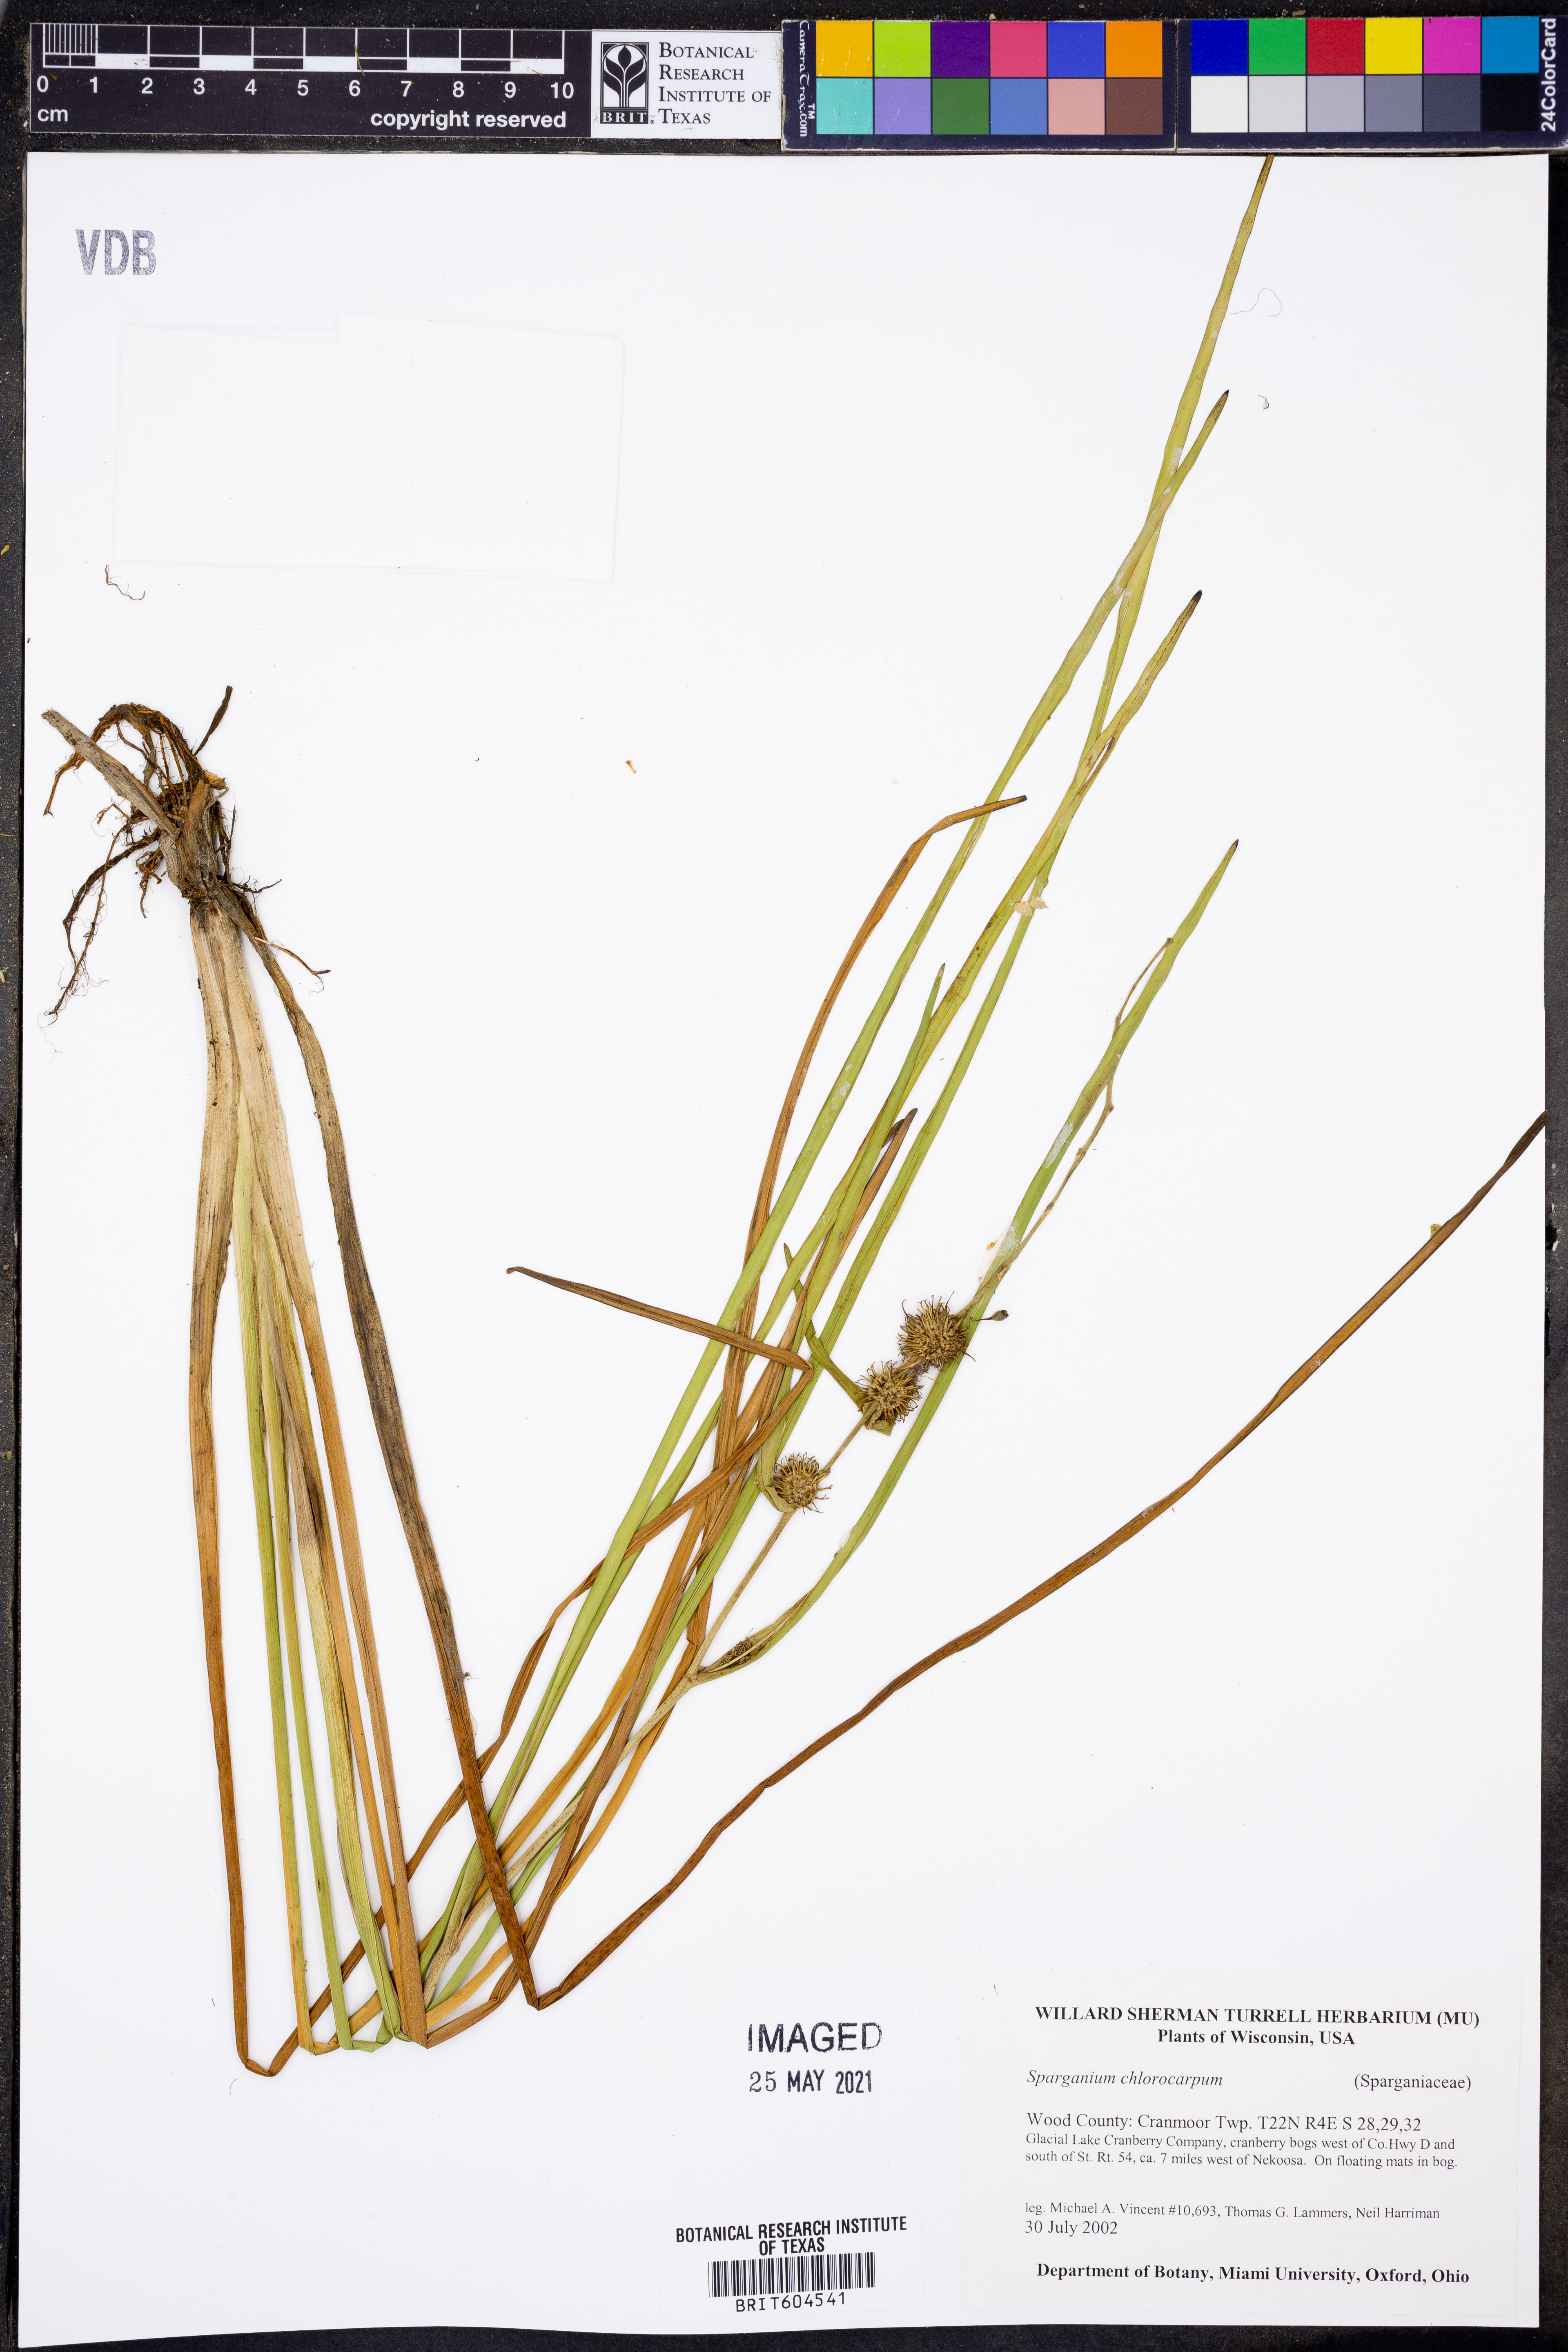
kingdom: Plantae
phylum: Tracheophyta
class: Liliopsida
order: Poales
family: Typhaceae
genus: Sparganium
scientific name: Sparganium emersum
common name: Unbranched bur-reed
